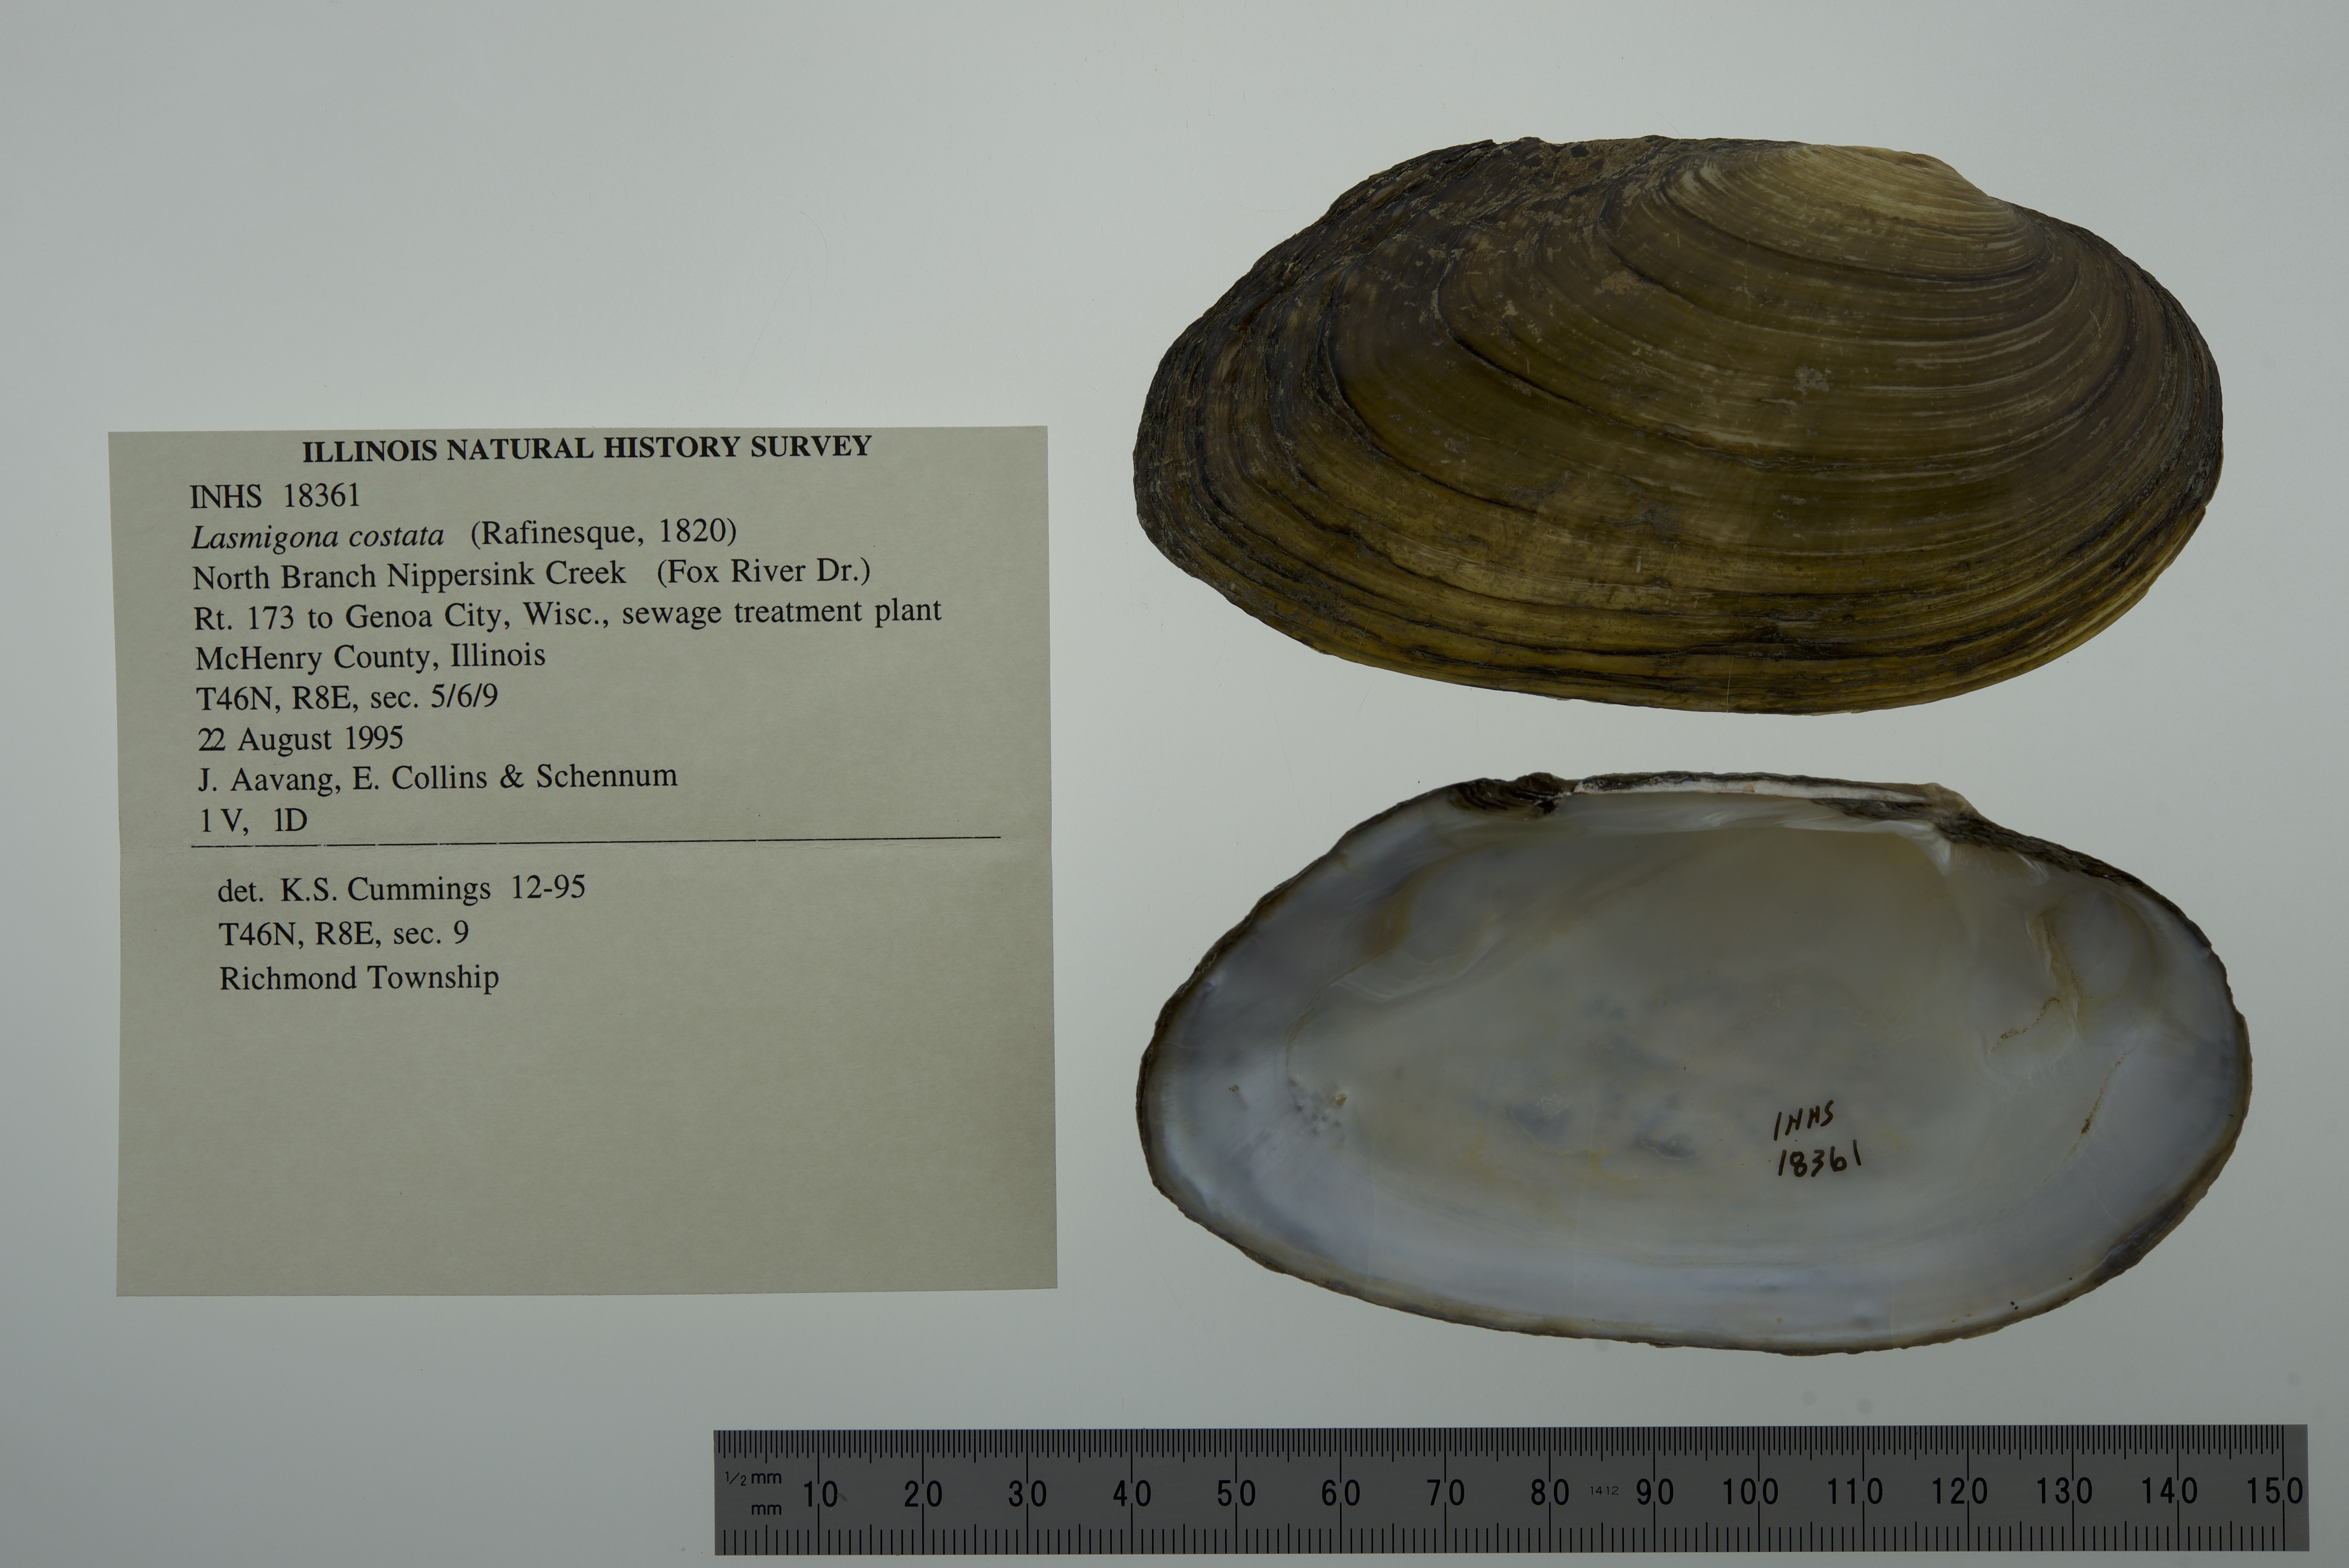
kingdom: Animalia
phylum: Mollusca
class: Bivalvia
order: Unionida
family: Unionidae
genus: Lasmigona
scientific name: Lasmigona costata
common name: Flutedshell
